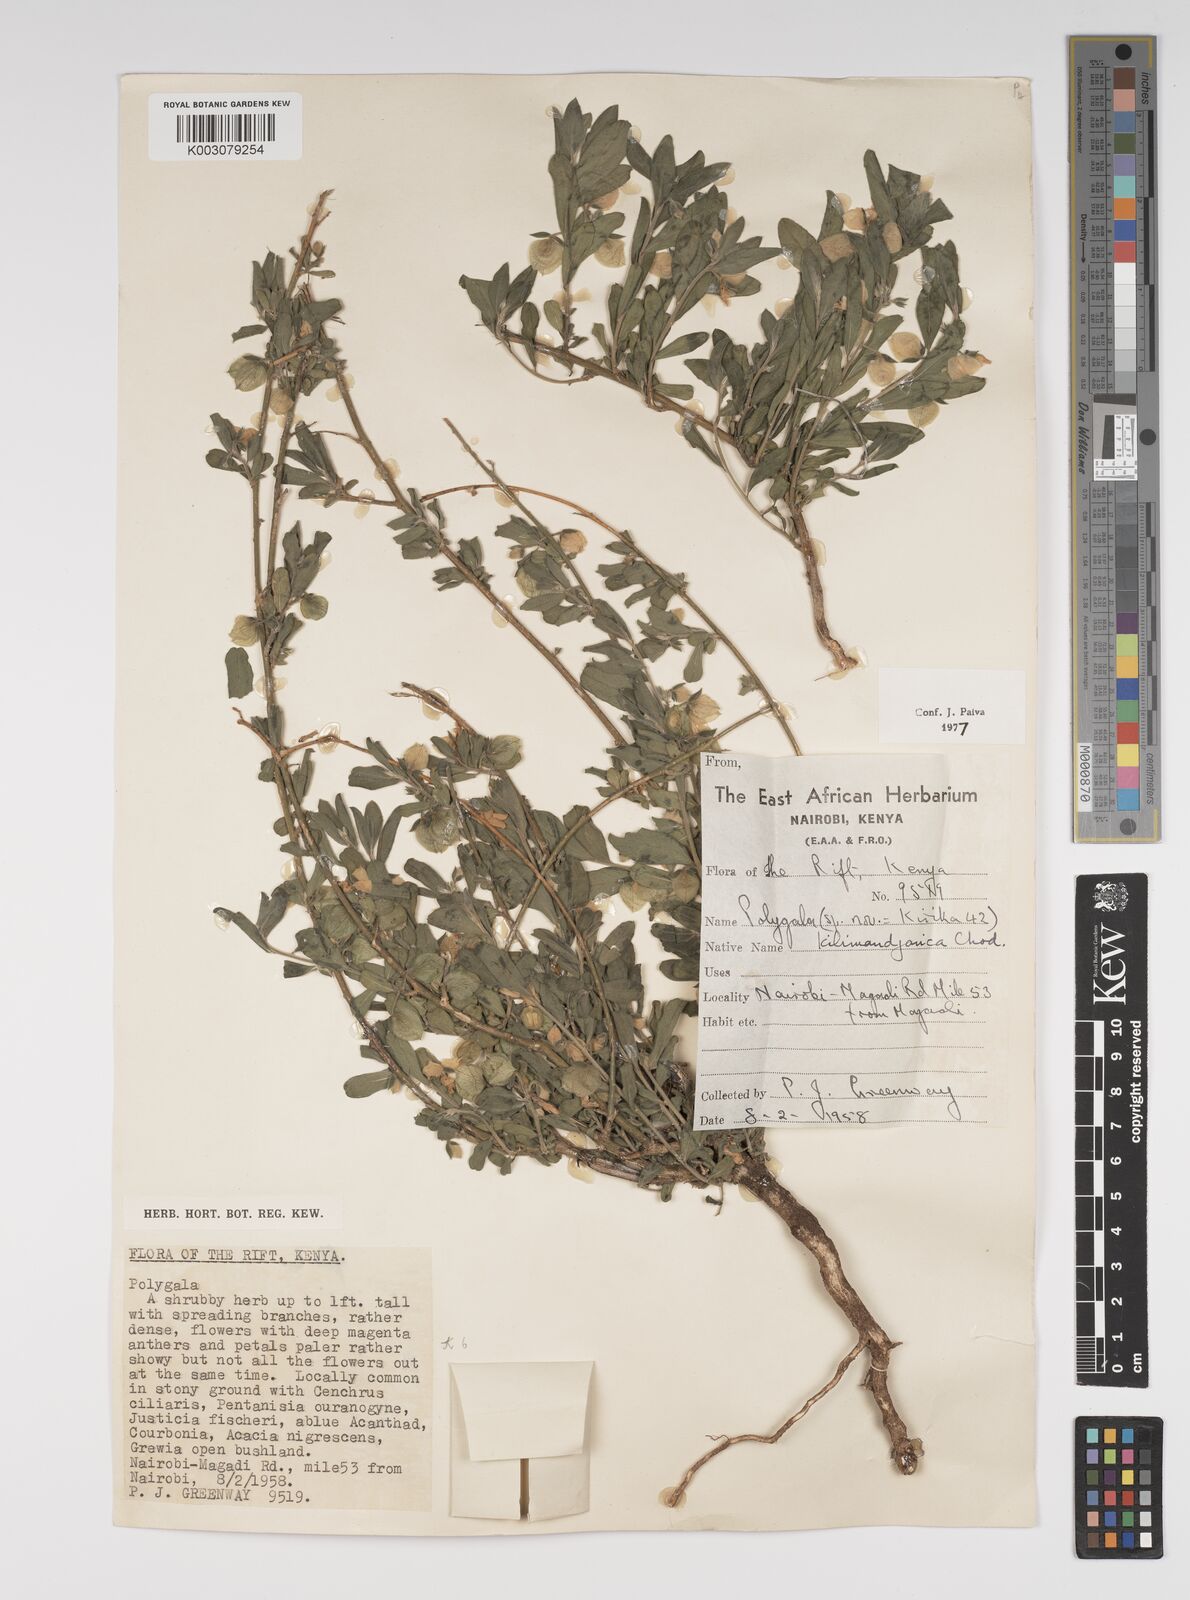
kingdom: Plantae
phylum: Tracheophyta
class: Magnoliopsida
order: Fabales
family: Polygalaceae
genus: Polygala
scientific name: Polygala kilimandjarica
